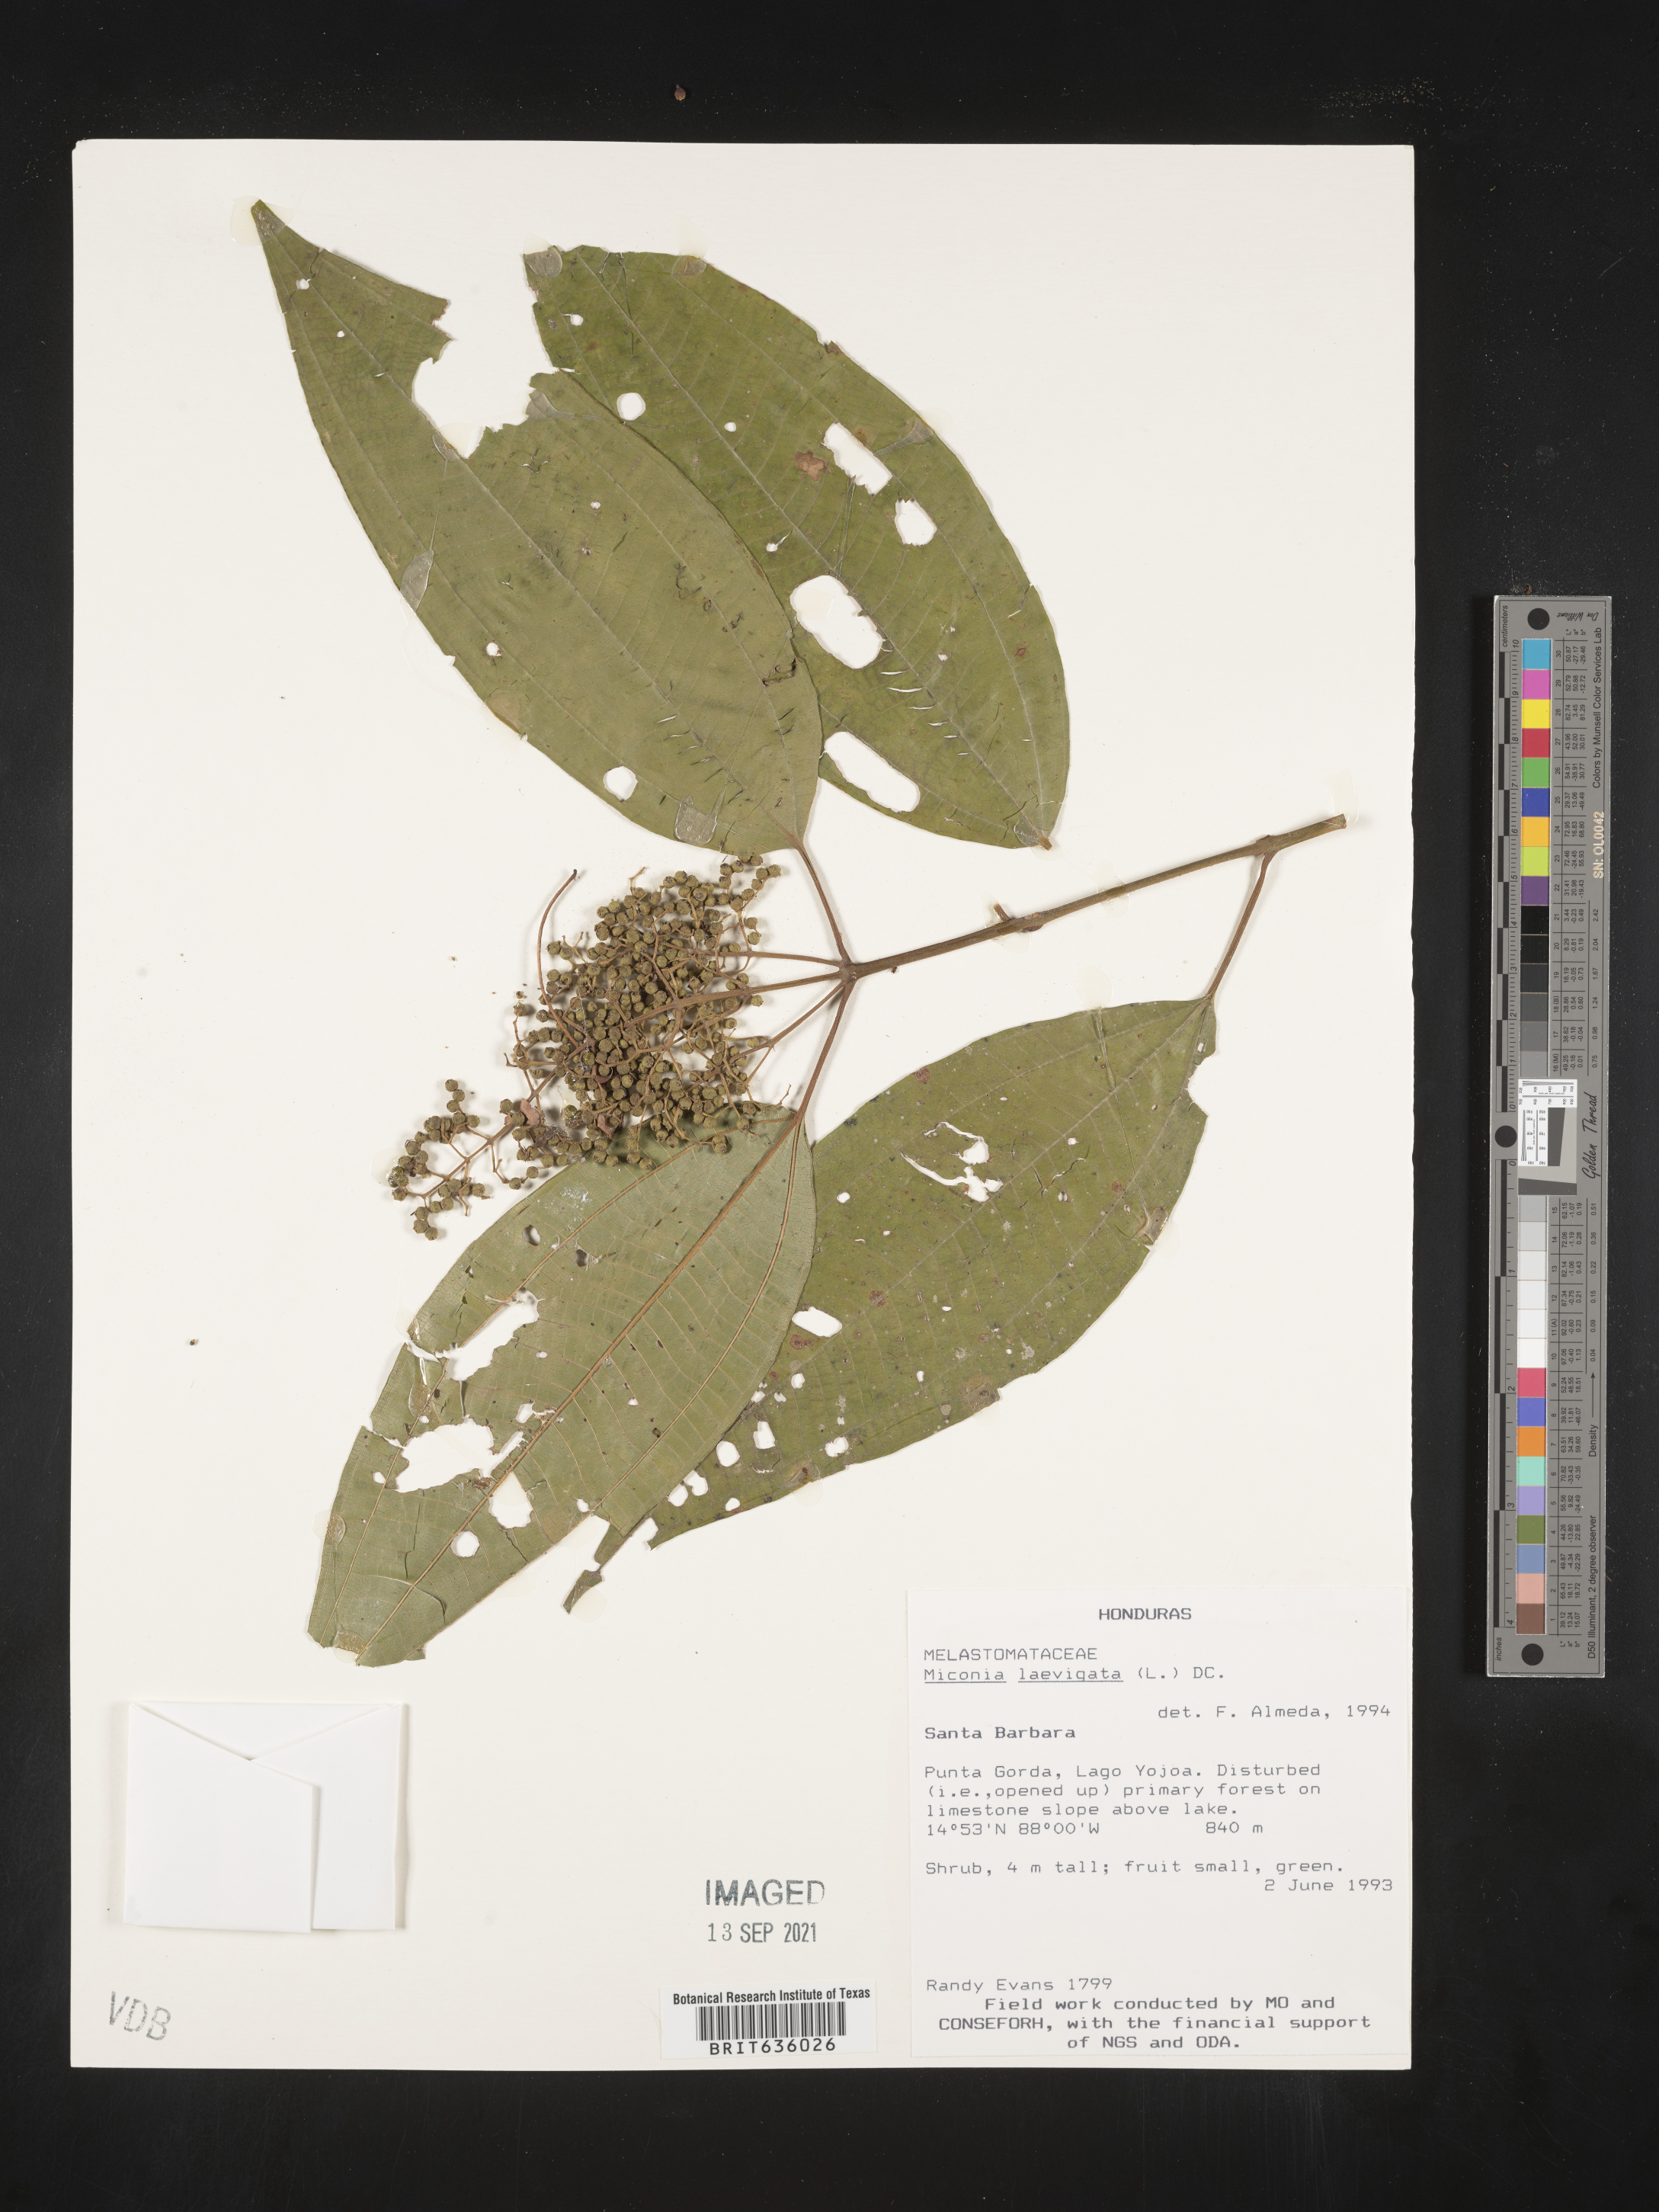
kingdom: Plantae
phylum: Tracheophyta
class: Magnoliopsida
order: Myrtales
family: Melastomataceae
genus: Miconia
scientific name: Miconia
